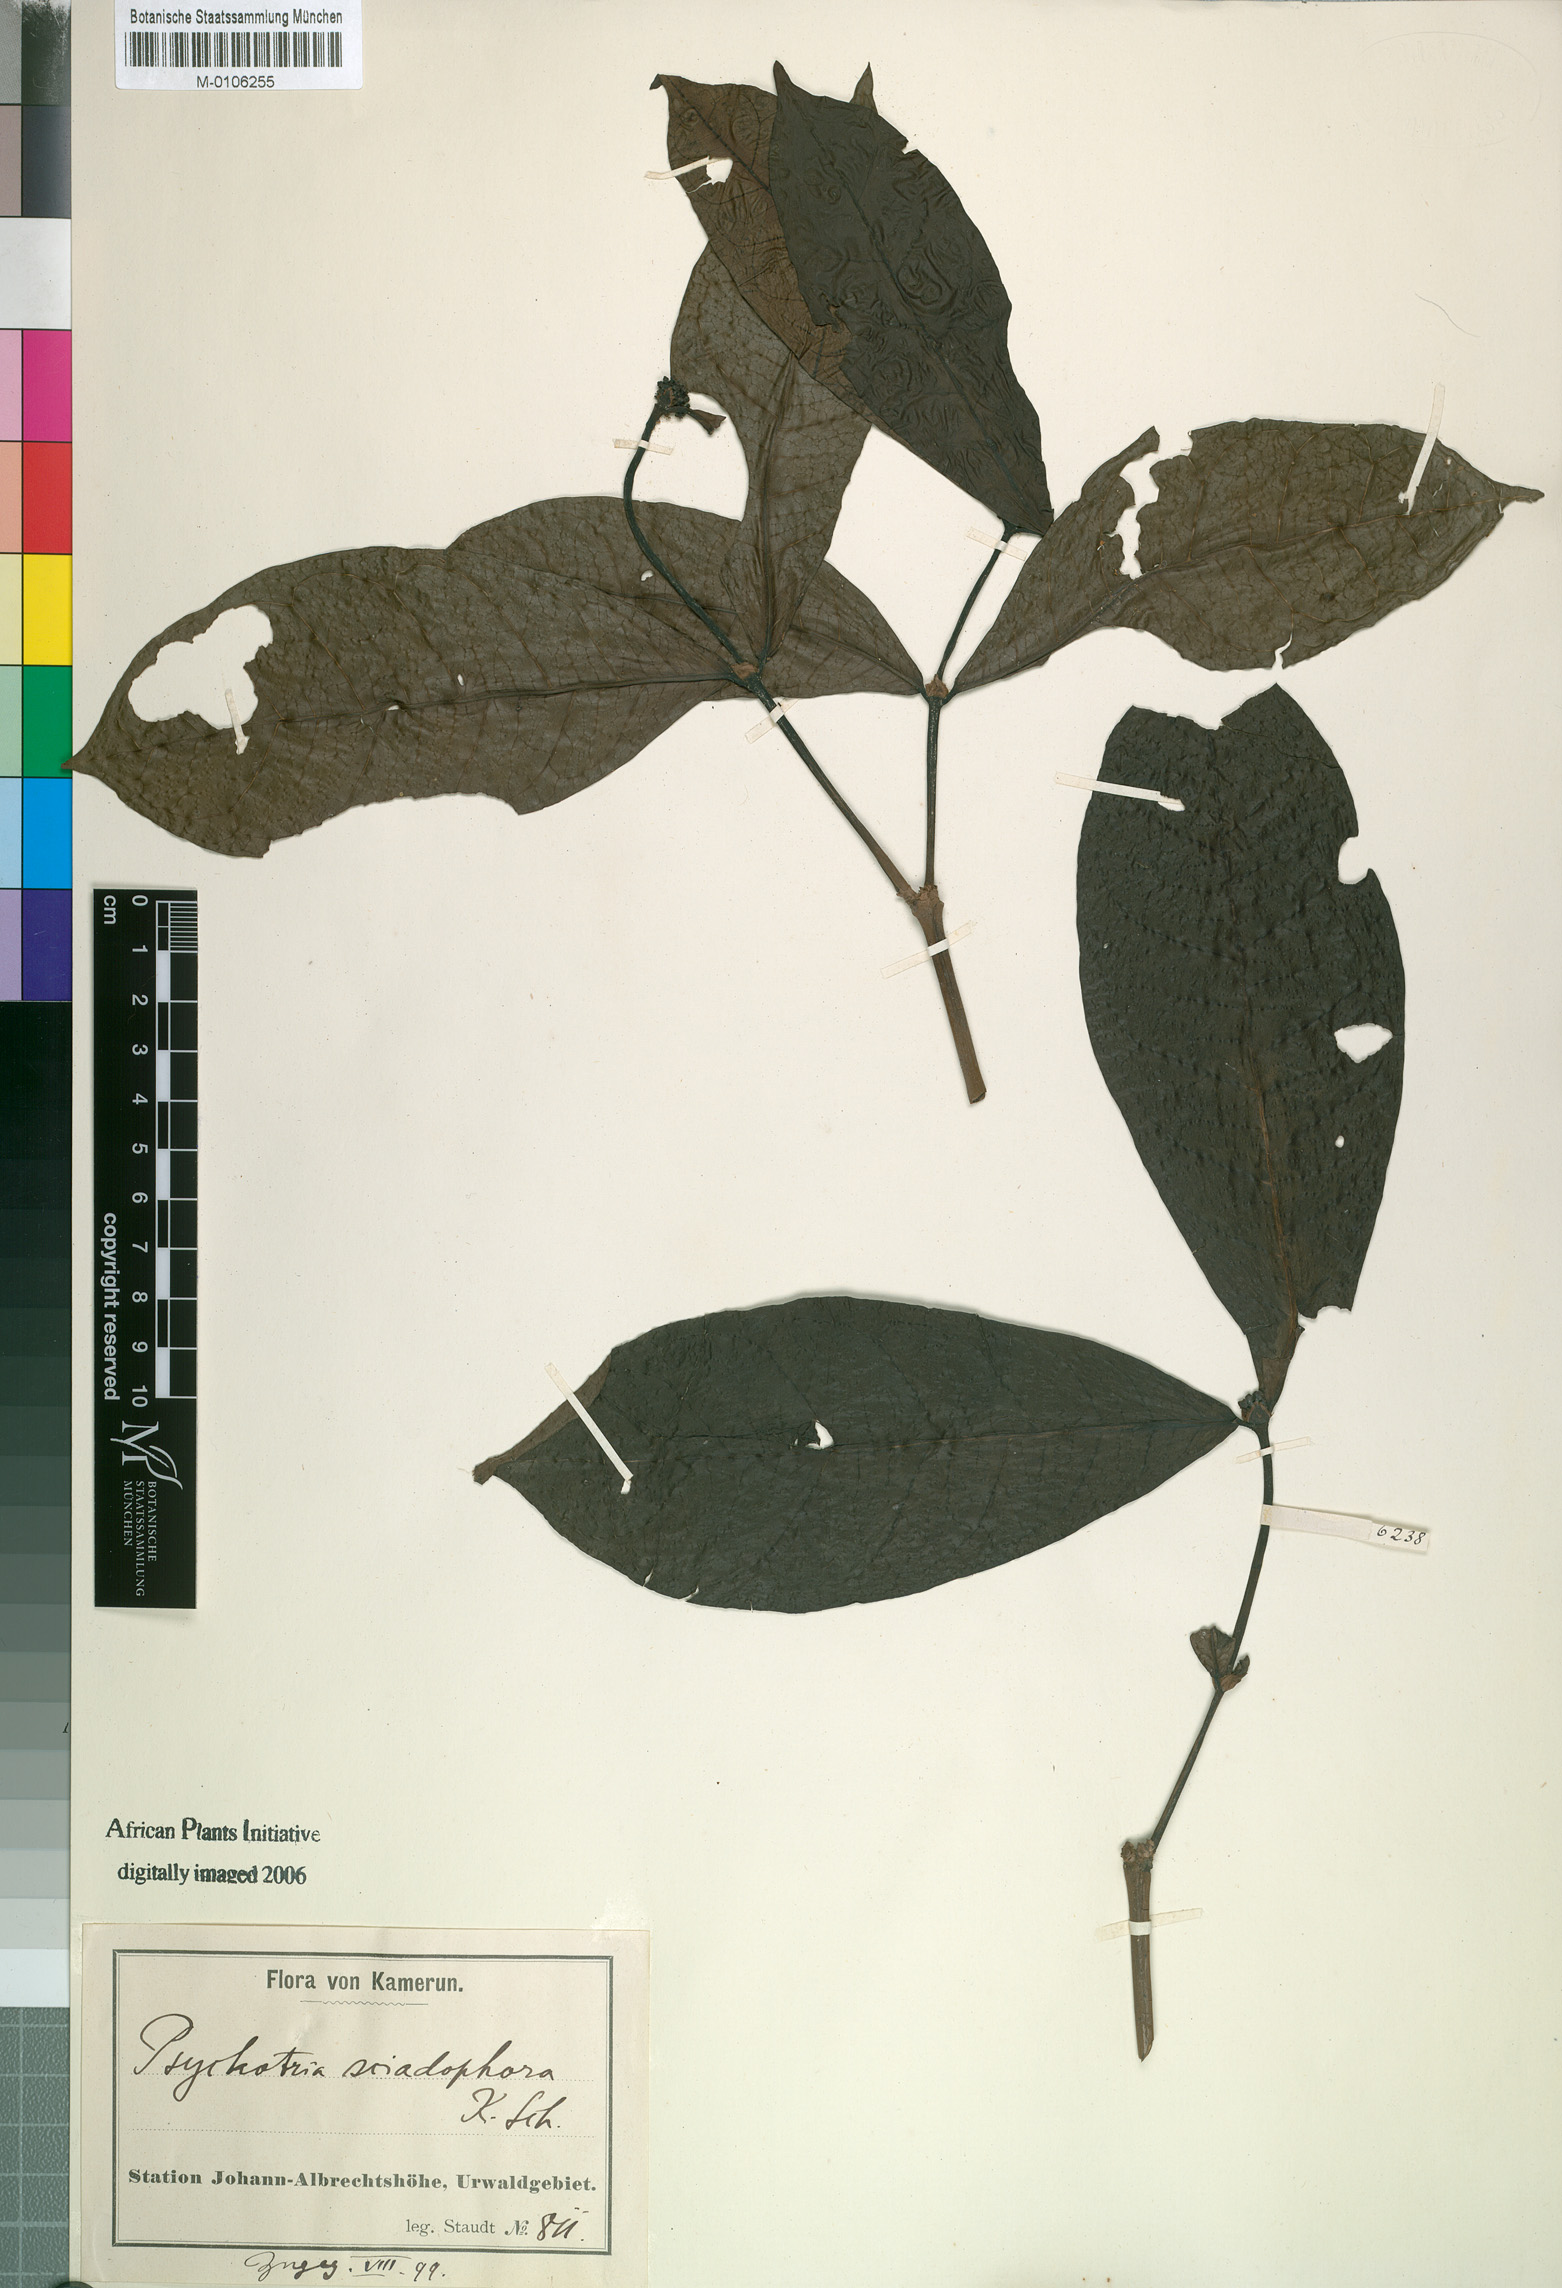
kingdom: Plantae
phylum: Tracheophyta
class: Magnoliopsida
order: Gentianales
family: Rubiaceae
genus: Psychotria
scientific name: Psychotria
